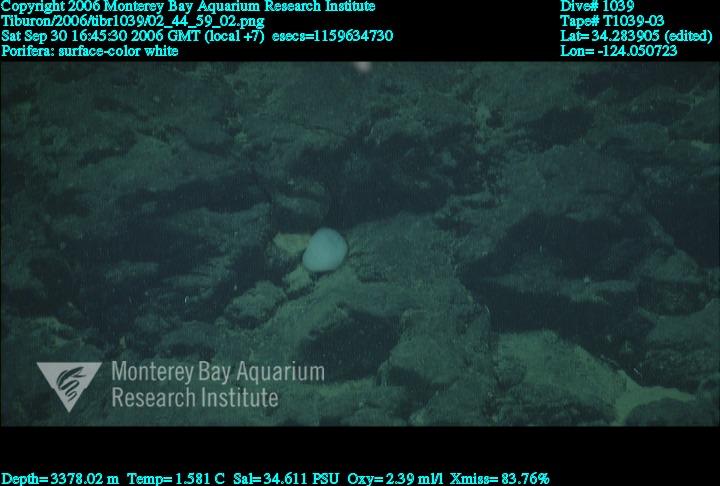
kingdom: Animalia
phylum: Porifera
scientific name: Porifera
